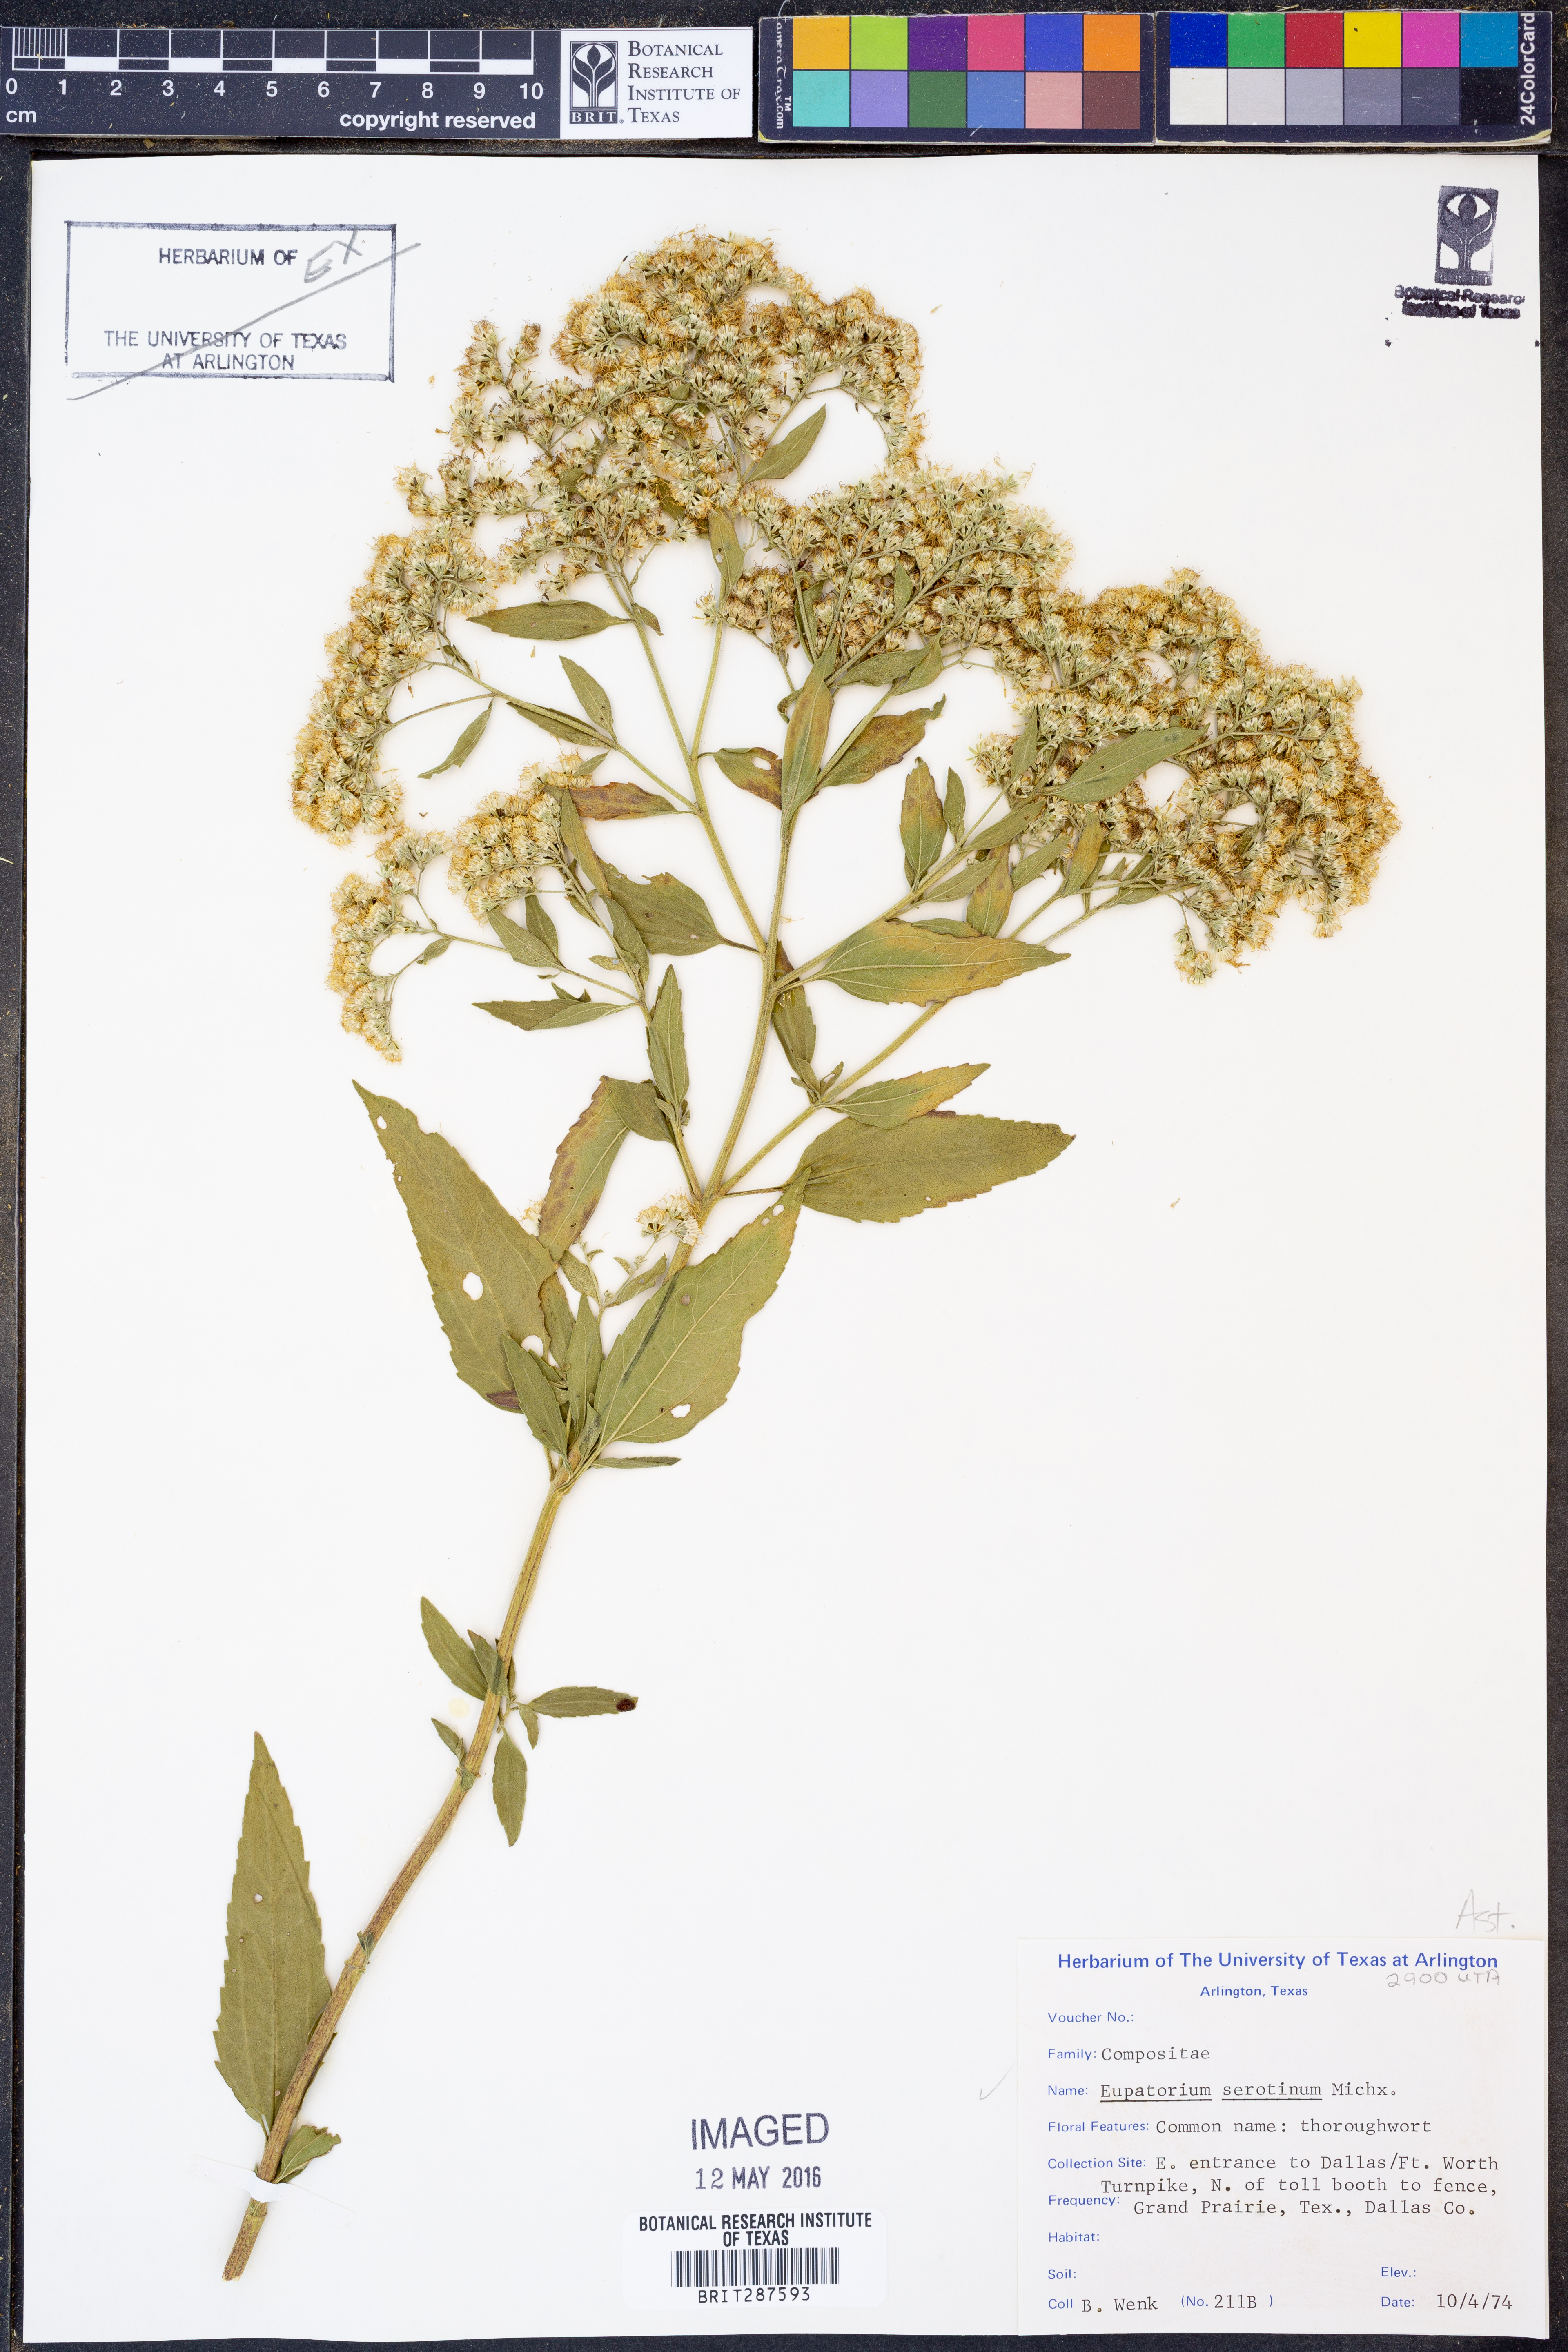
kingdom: Plantae
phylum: Tracheophyta
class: Magnoliopsida
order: Asterales
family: Asteraceae
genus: Eupatorium
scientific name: Eupatorium serotinum
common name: Late boneset
